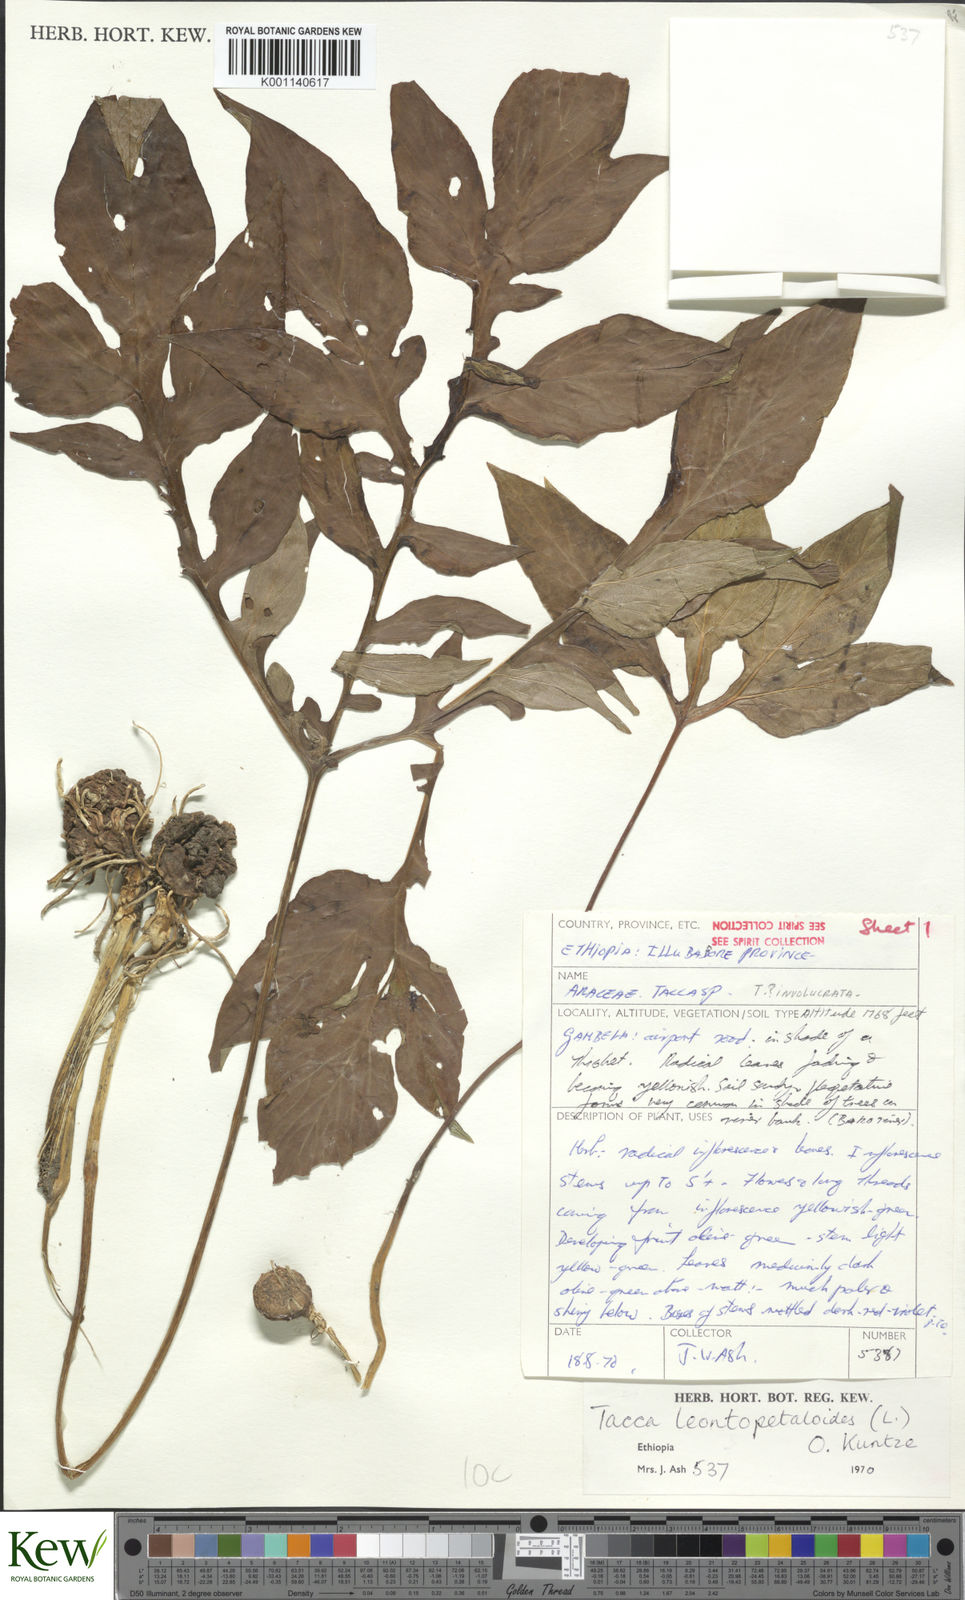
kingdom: Plantae
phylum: Tracheophyta
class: Liliopsida
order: Dioscoreales
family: Dioscoreaceae
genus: Tacca
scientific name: Tacca leontopetaloides
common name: Arrowroot
